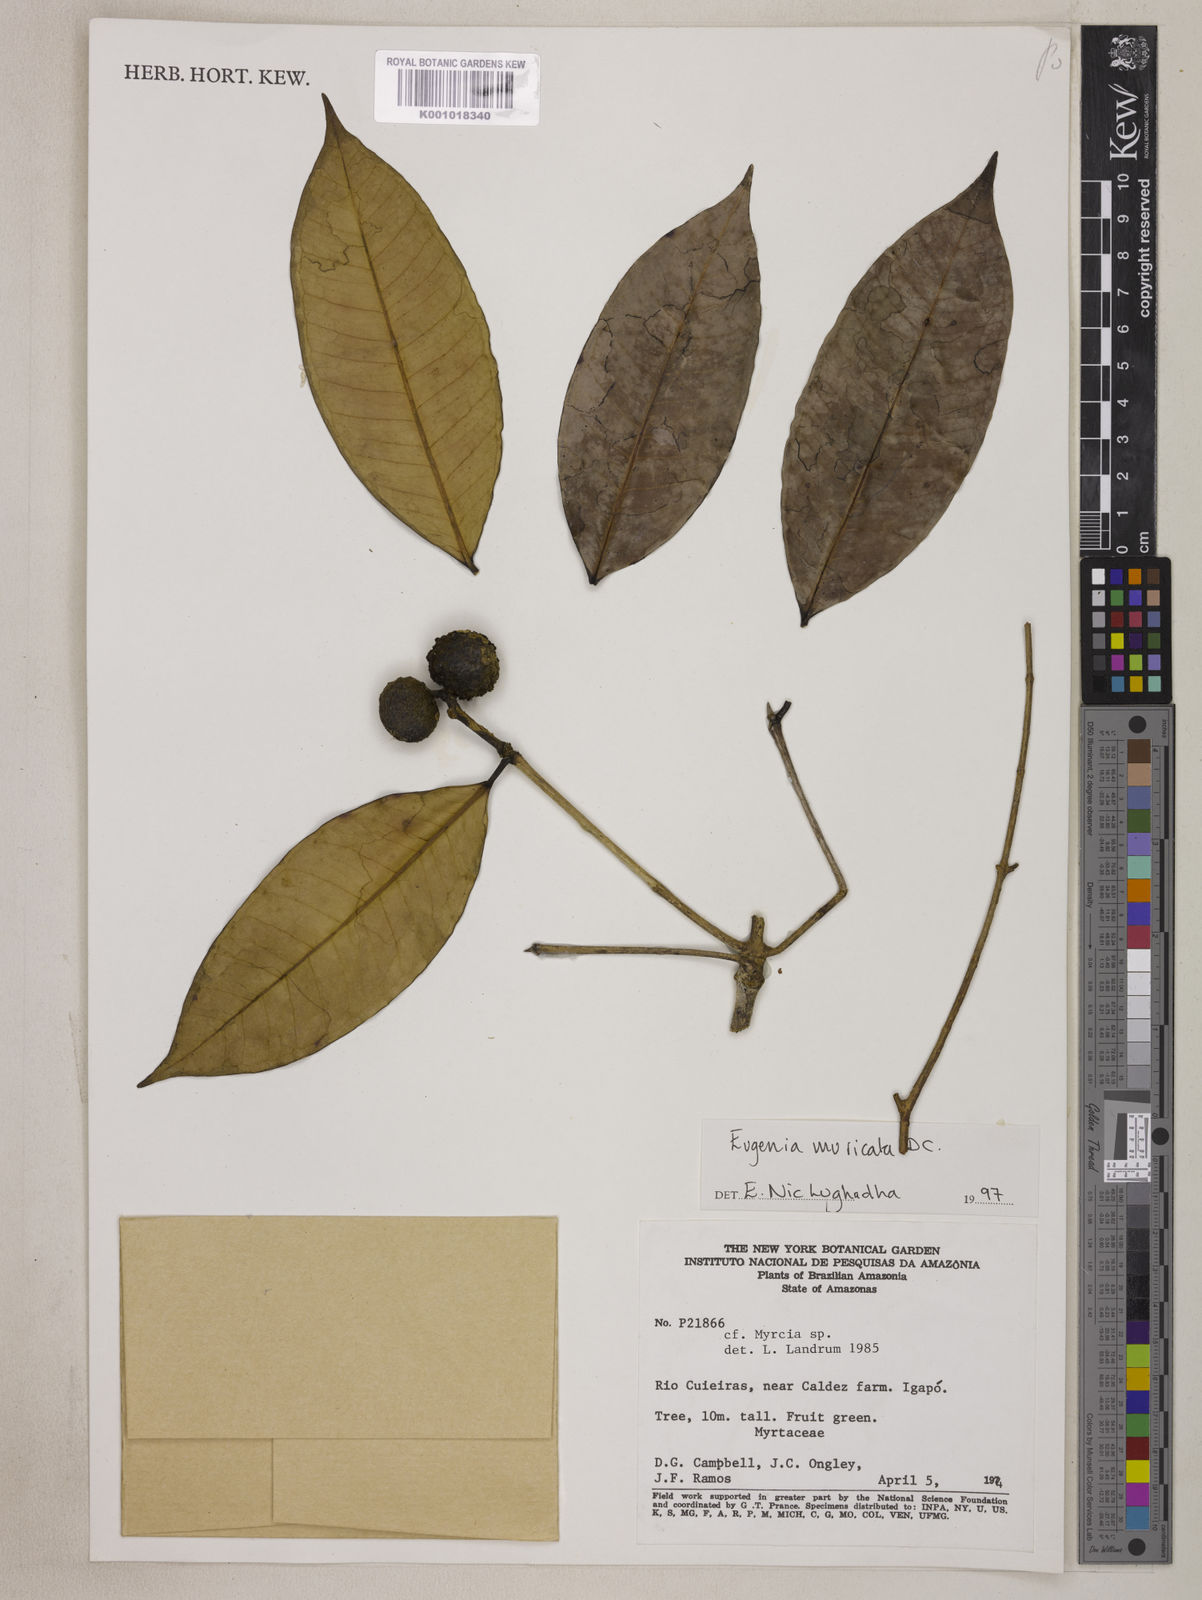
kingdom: Plantae
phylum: Tracheophyta
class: Magnoliopsida
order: Myrtales
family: Myrtaceae
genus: Eugenia
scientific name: Eugenia muricata
